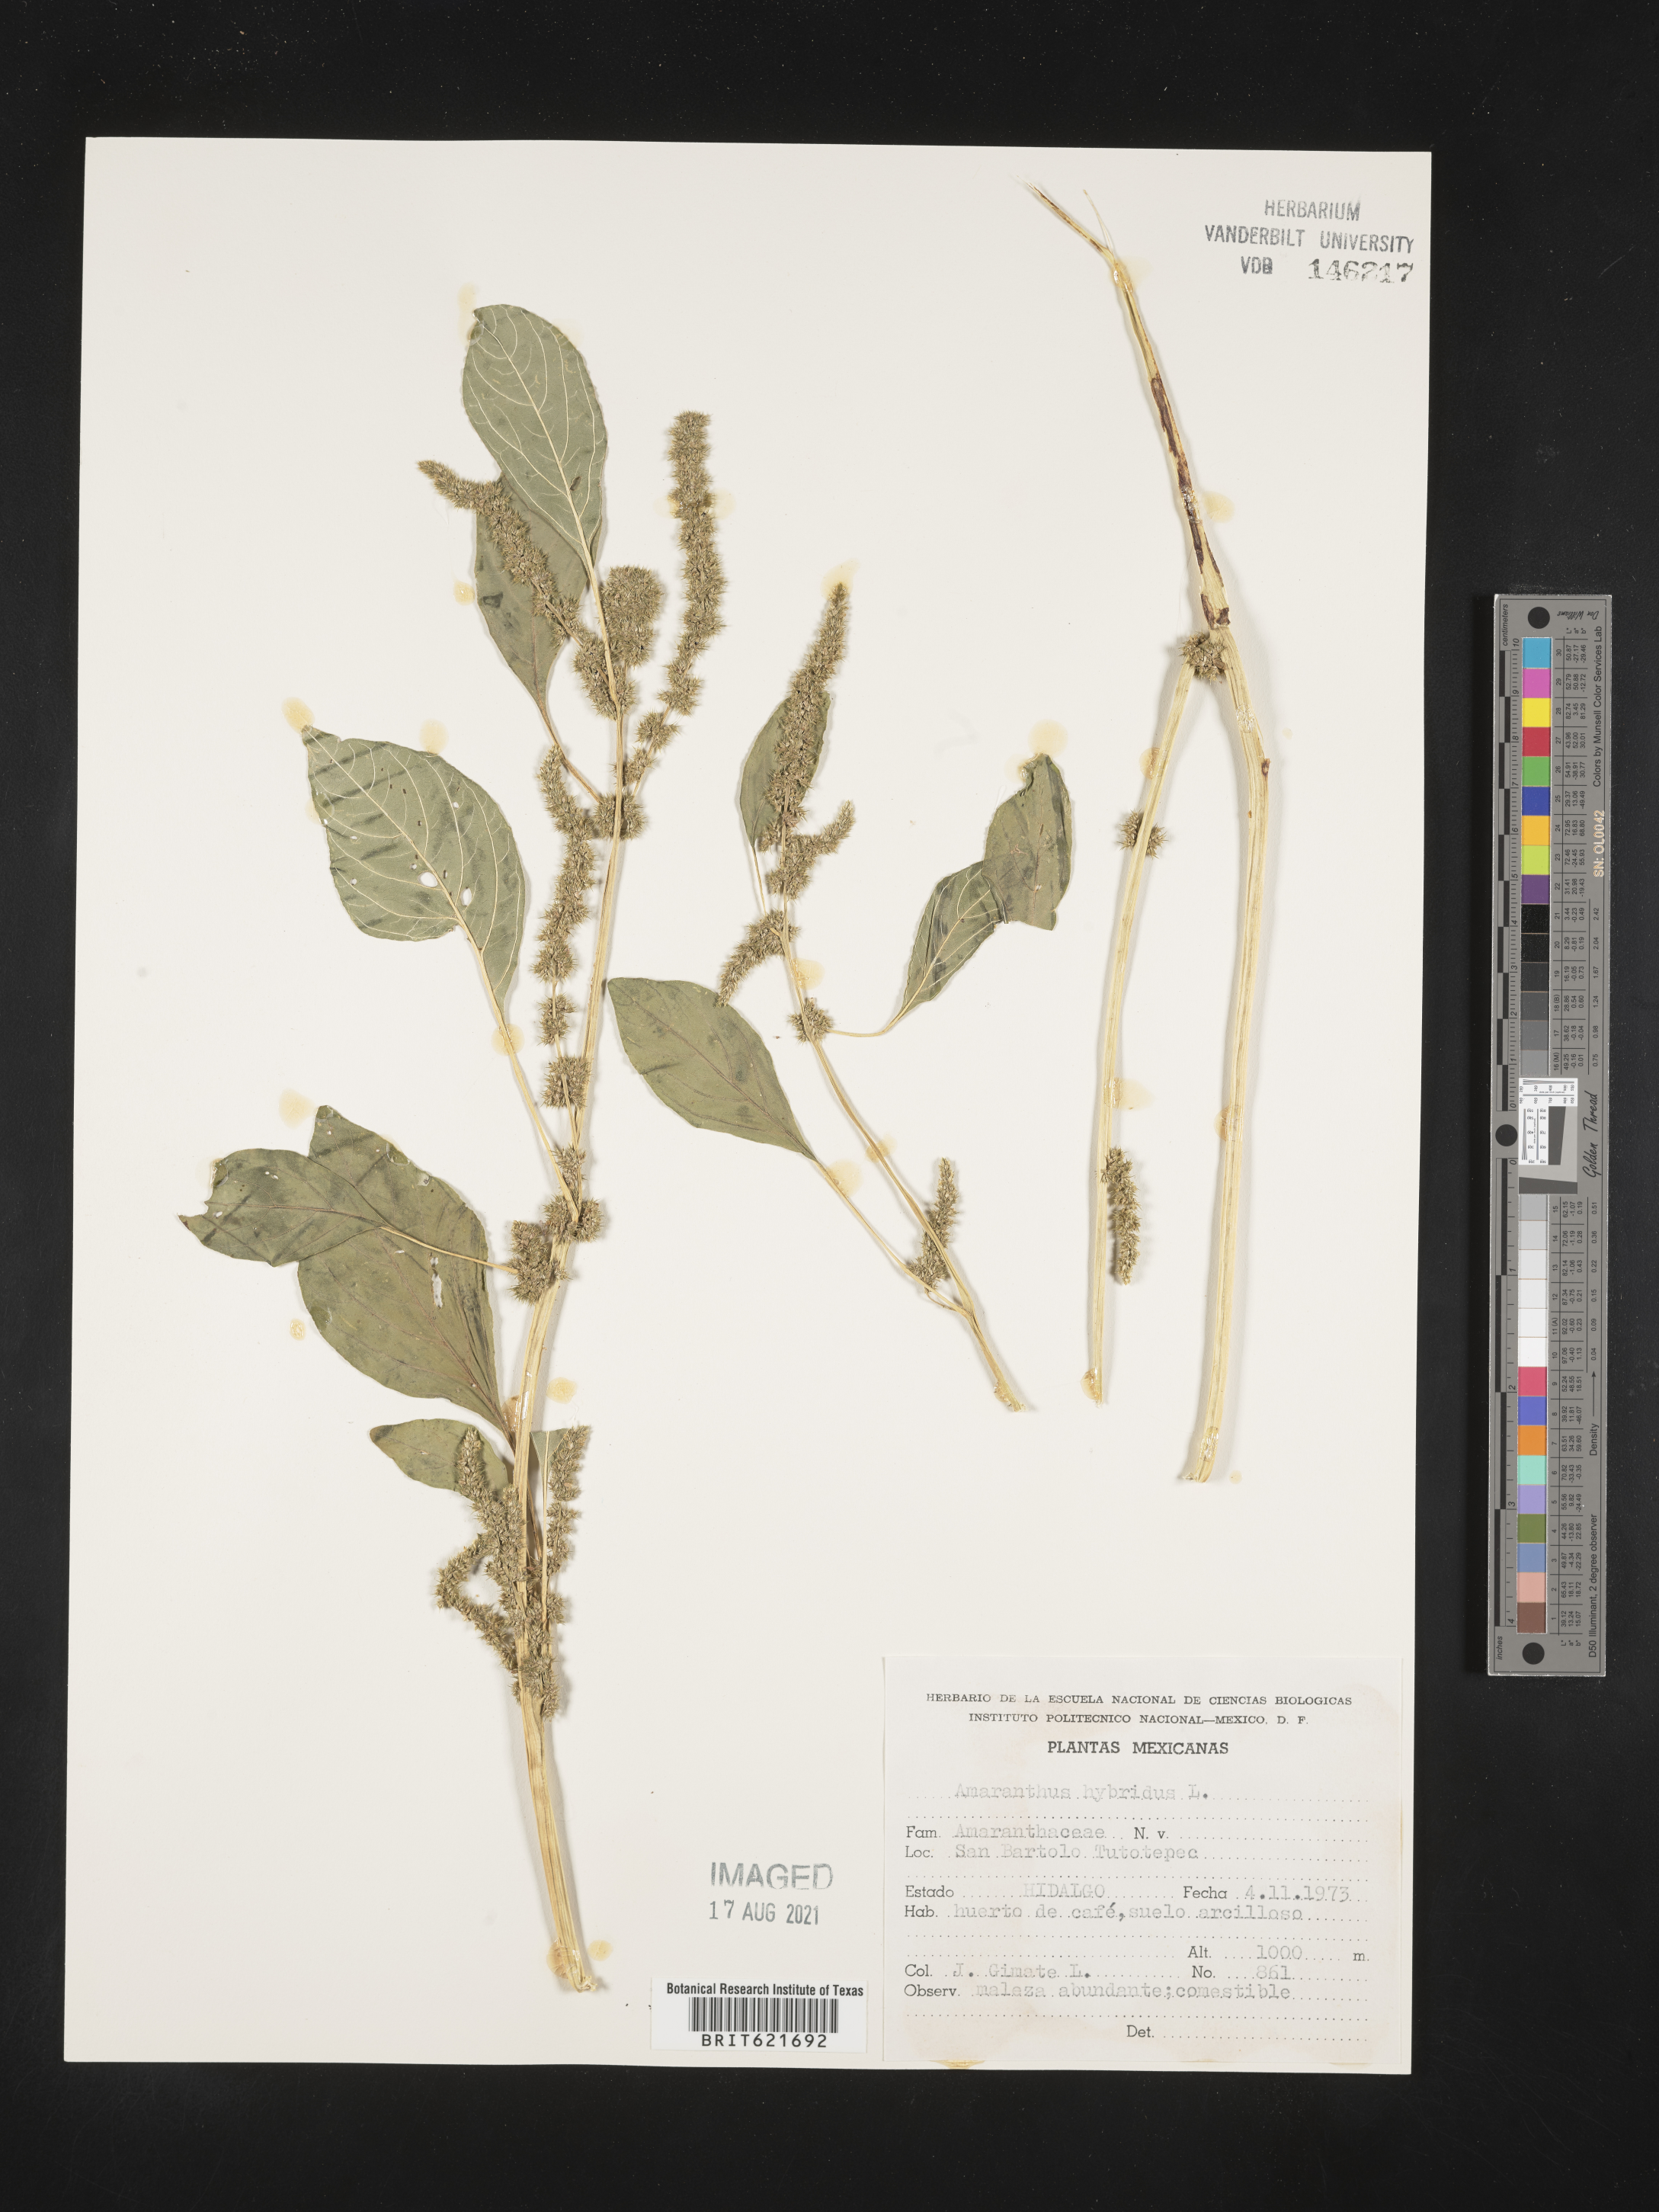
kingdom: Plantae
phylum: Tracheophyta
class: Magnoliopsida
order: Caryophyllales
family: Amaranthaceae
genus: Amaranthus
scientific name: Amaranthus
